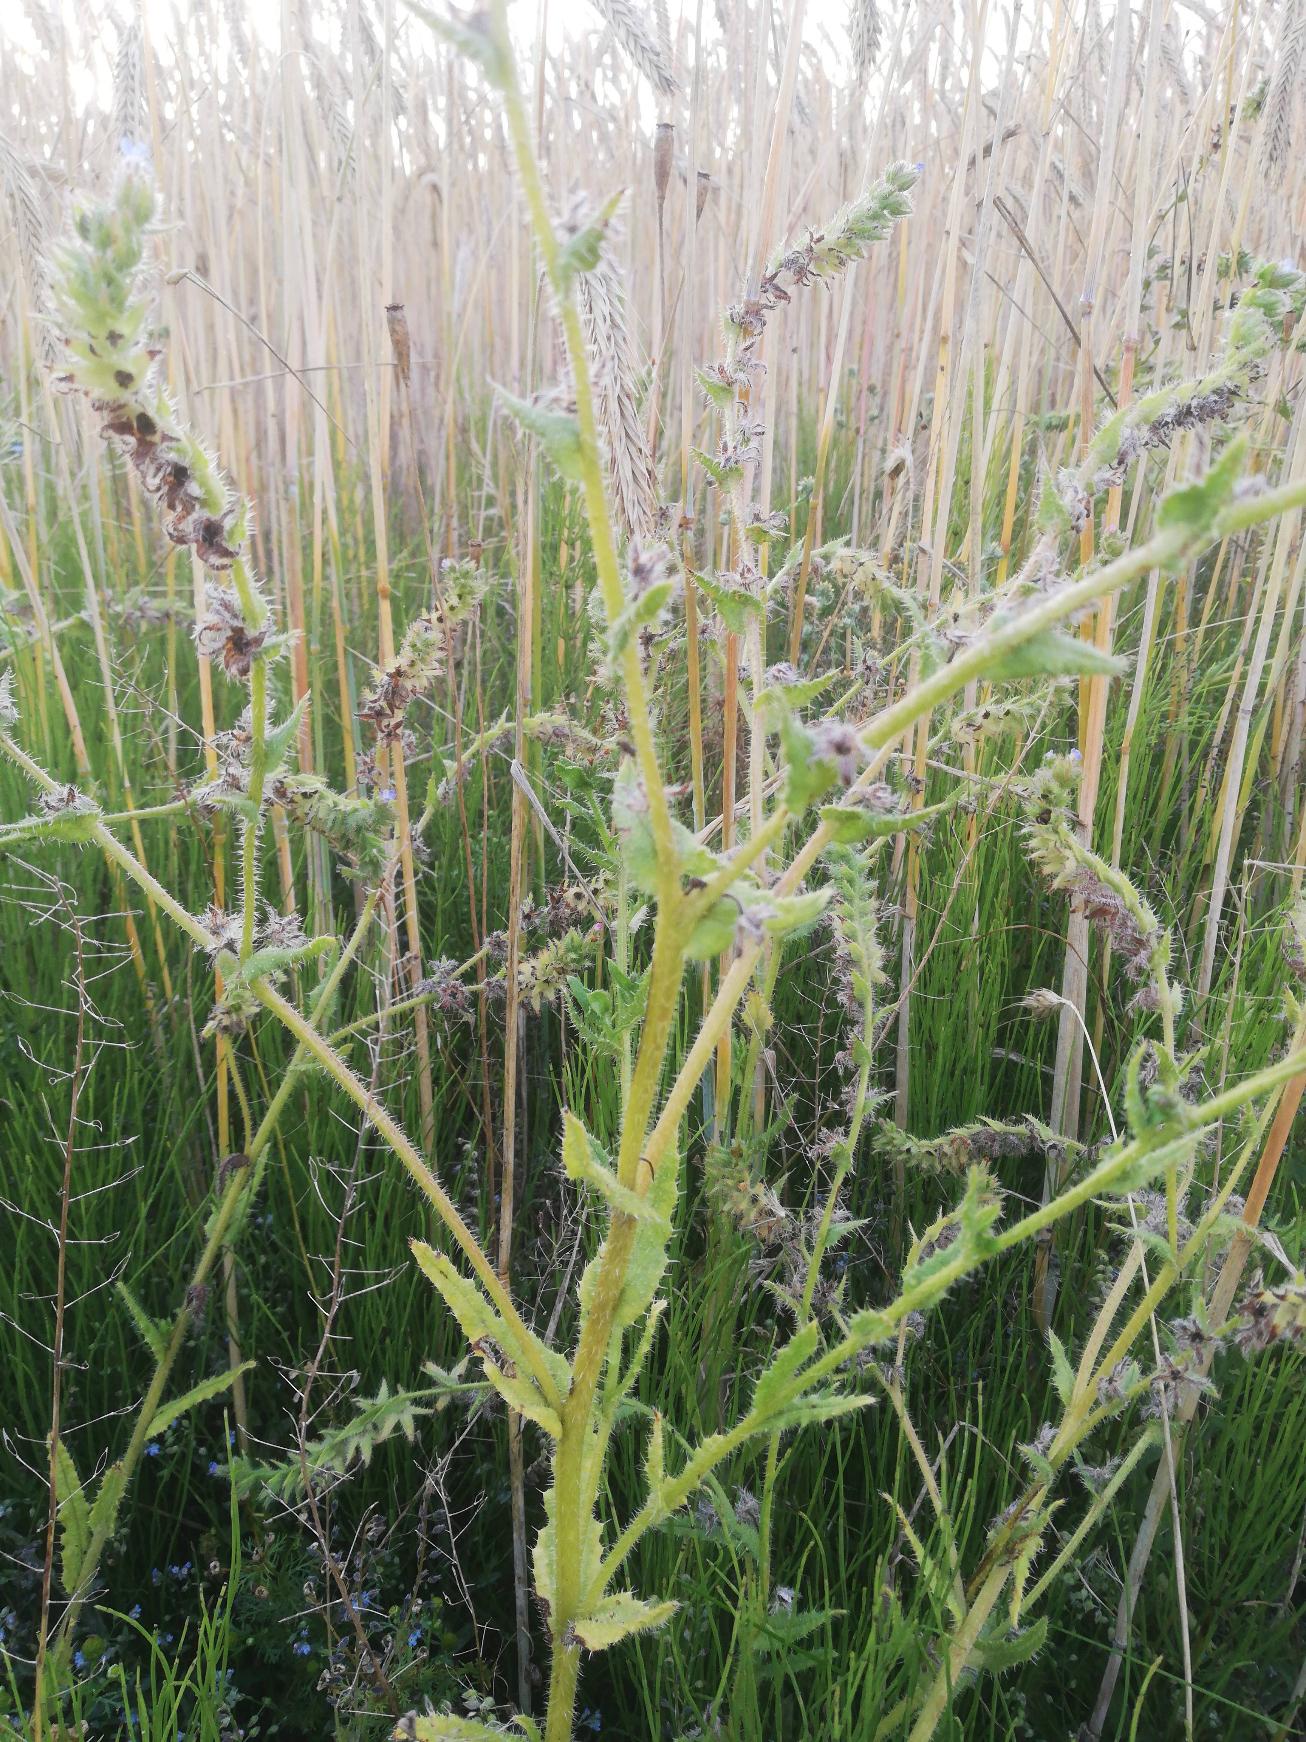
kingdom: Plantae
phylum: Tracheophyta
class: Magnoliopsida
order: Boraginales
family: Boraginaceae
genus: Lycopsis
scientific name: Lycopsis arvensis
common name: Krumhals
